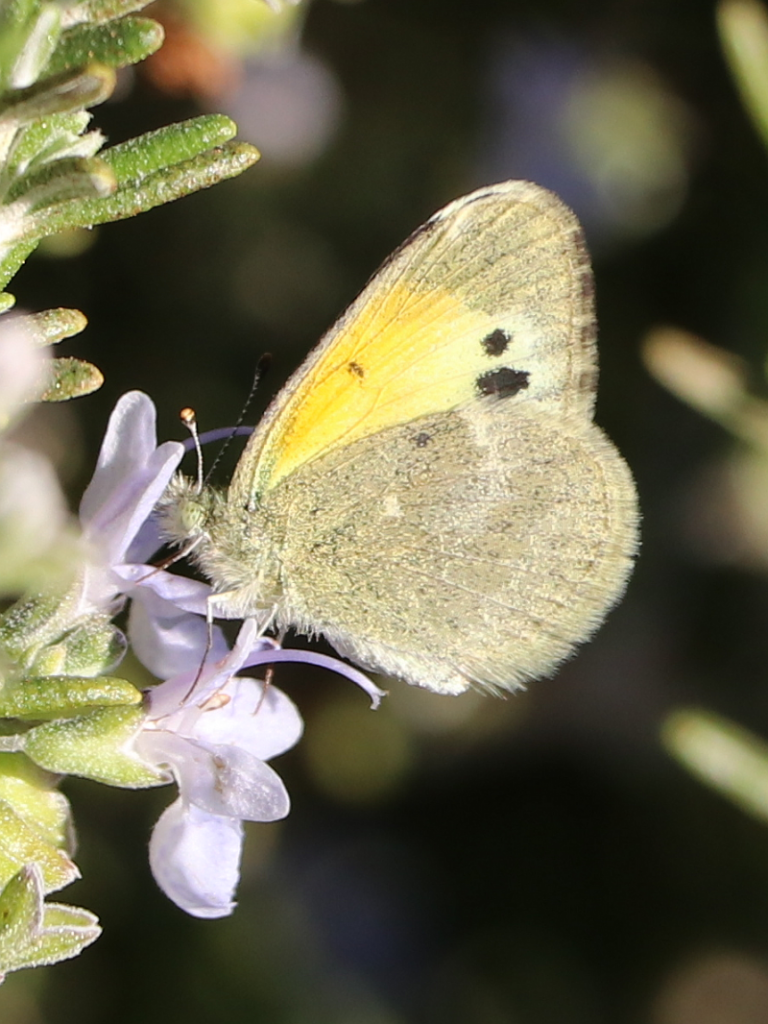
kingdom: Animalia
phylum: Arthropoda
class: Insecta
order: Lepidoptera
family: Pieridae
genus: Nathalis
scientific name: Nathalis iole
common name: Dainty Sulphur
